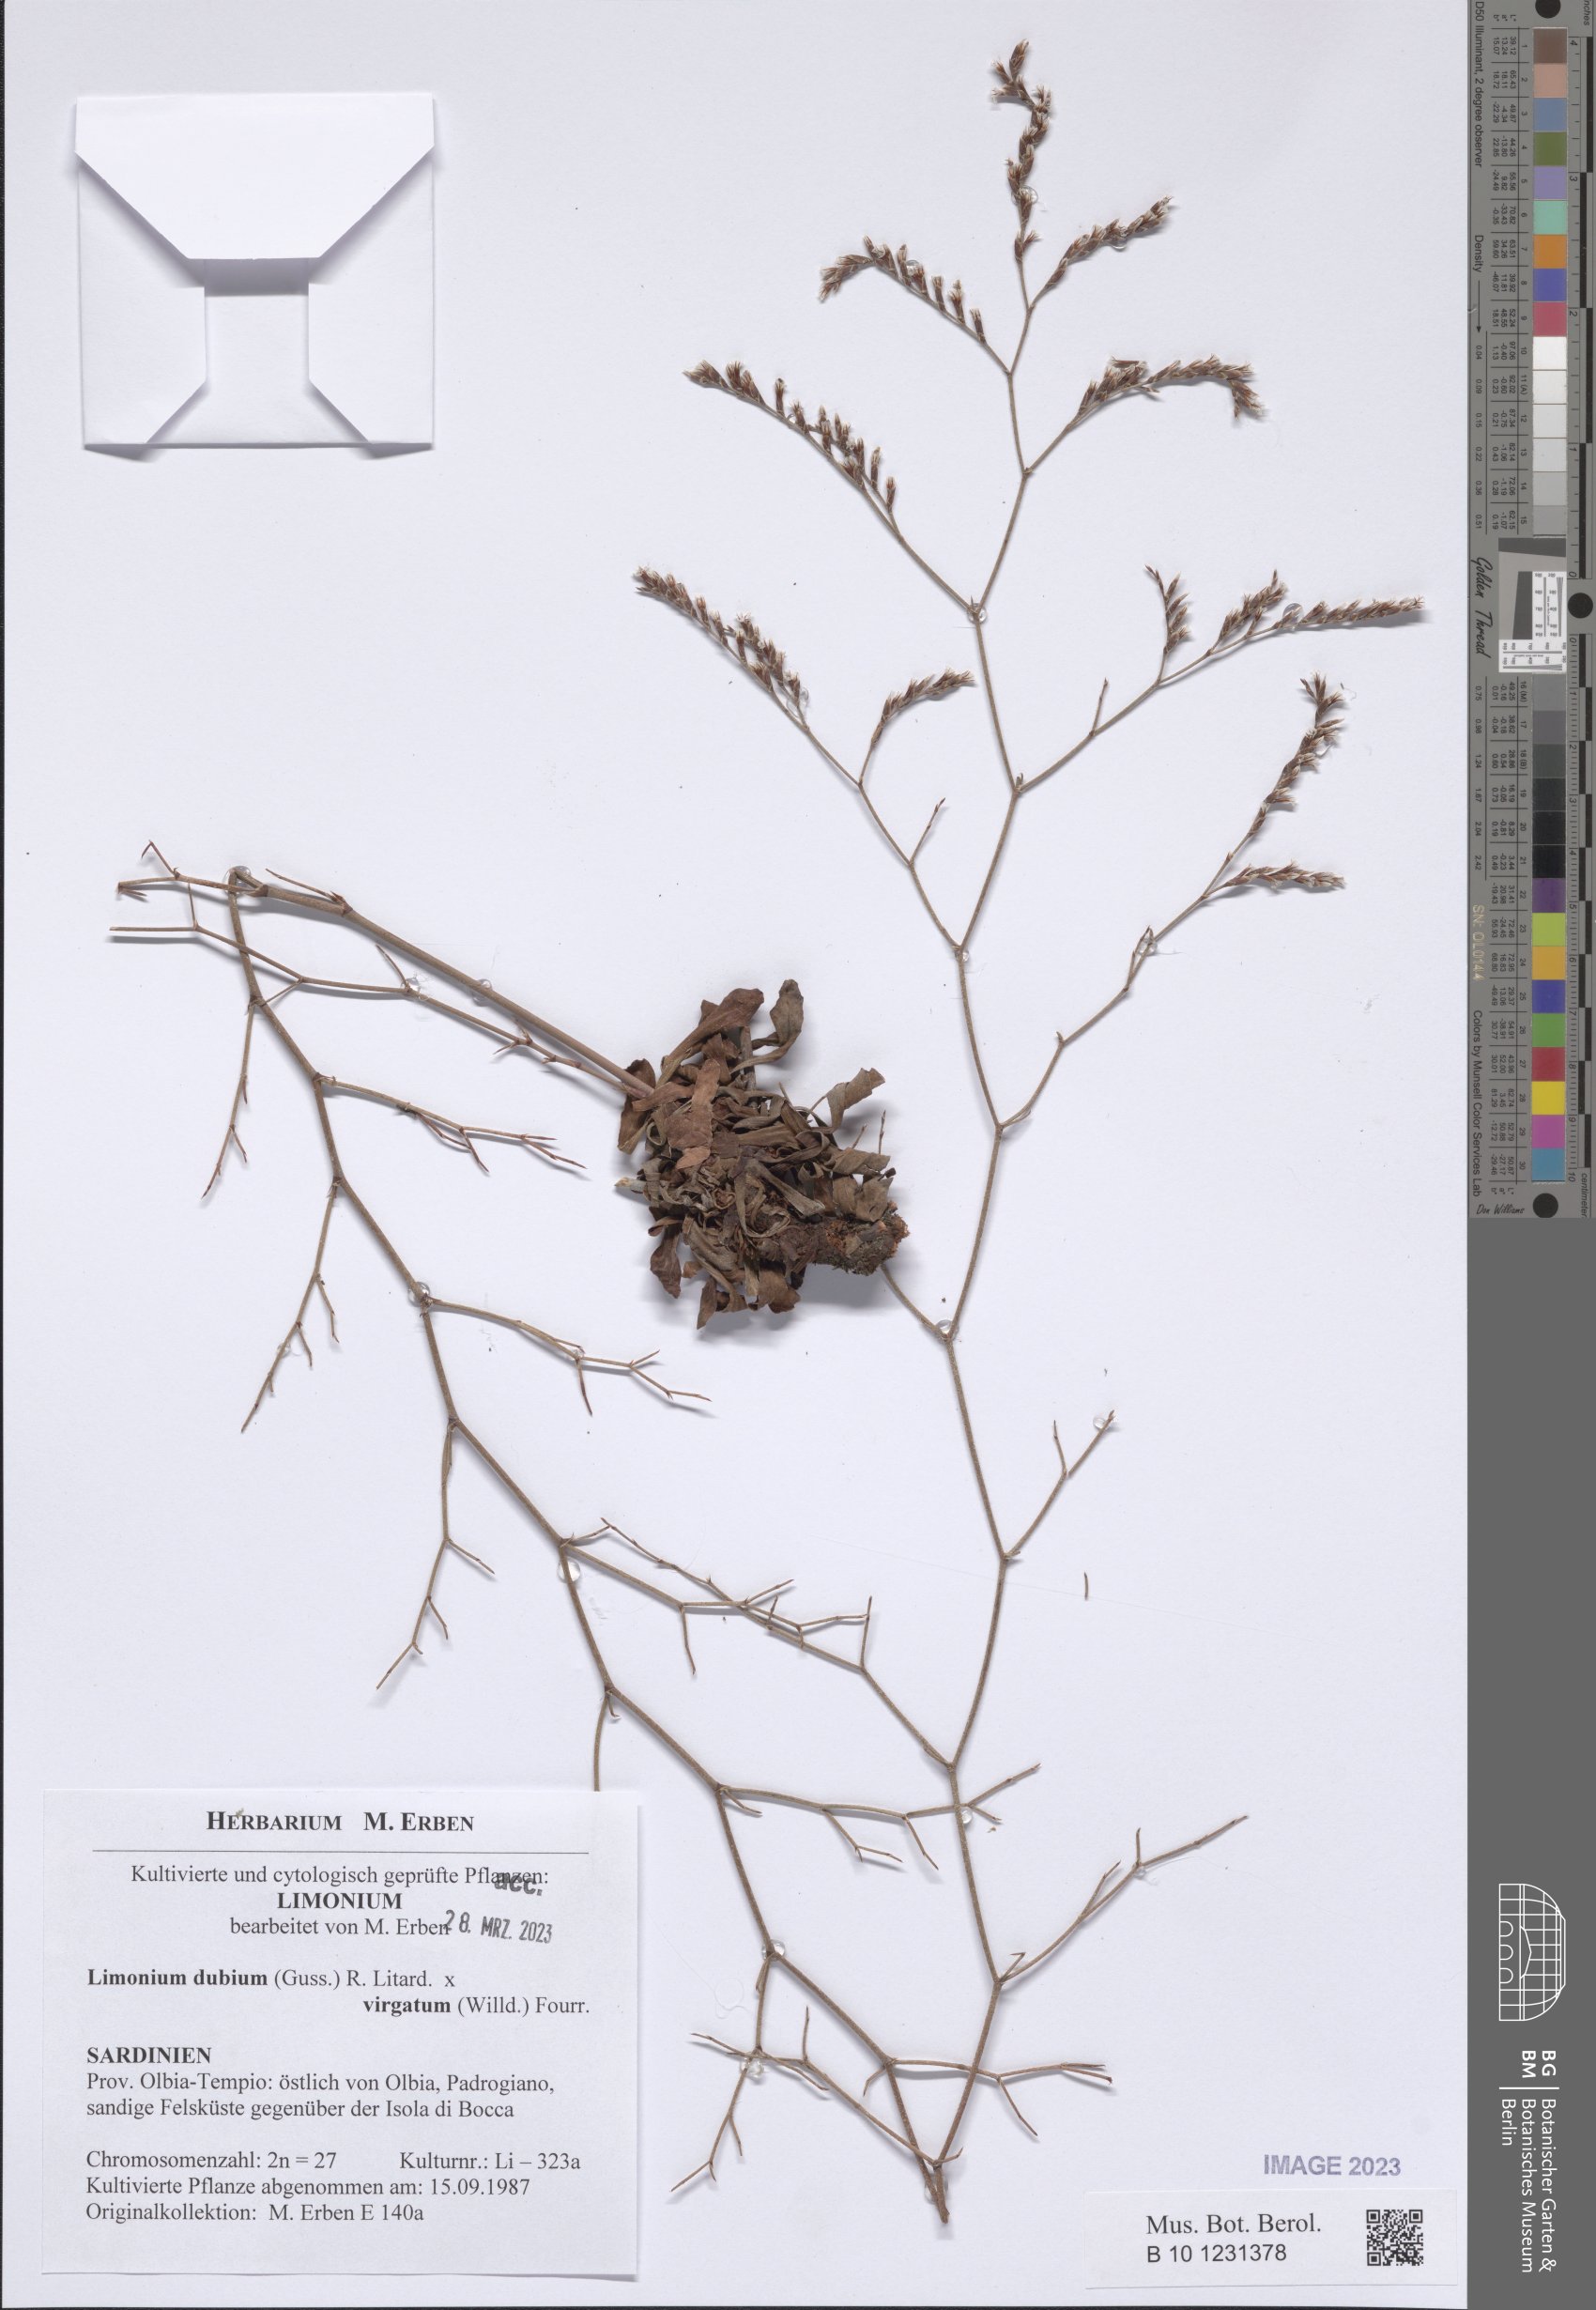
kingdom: Plantae
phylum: Tracheophyta
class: Magnoliopsida
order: Caryophyllales
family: Plumbaginaceae
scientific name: Plumbaginaceae
